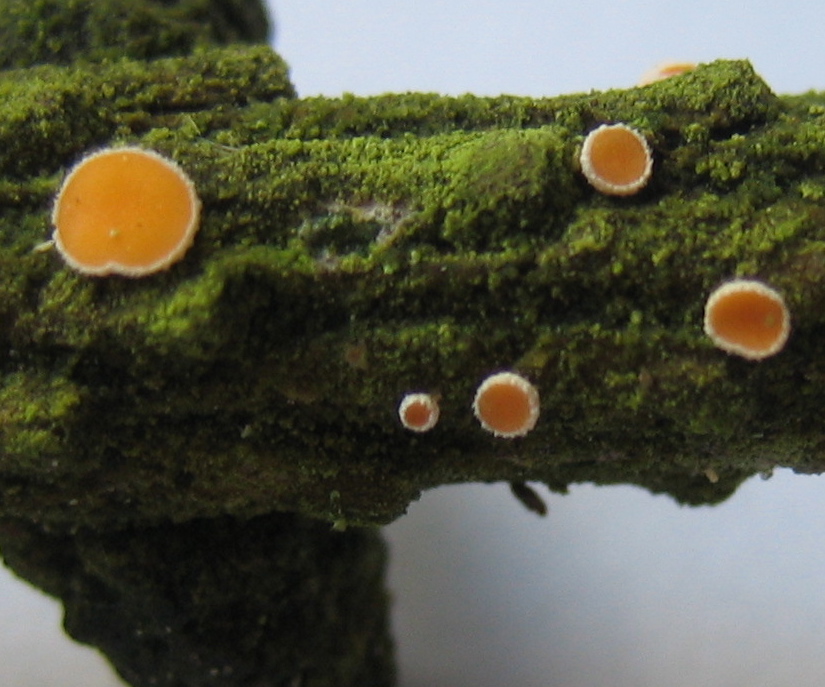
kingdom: Fungi
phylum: Ascomycota
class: Leotiomycetes
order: Helotiales
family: Lachnaceae
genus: Lachnellula
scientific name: Lachnellula
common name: frynseskive
